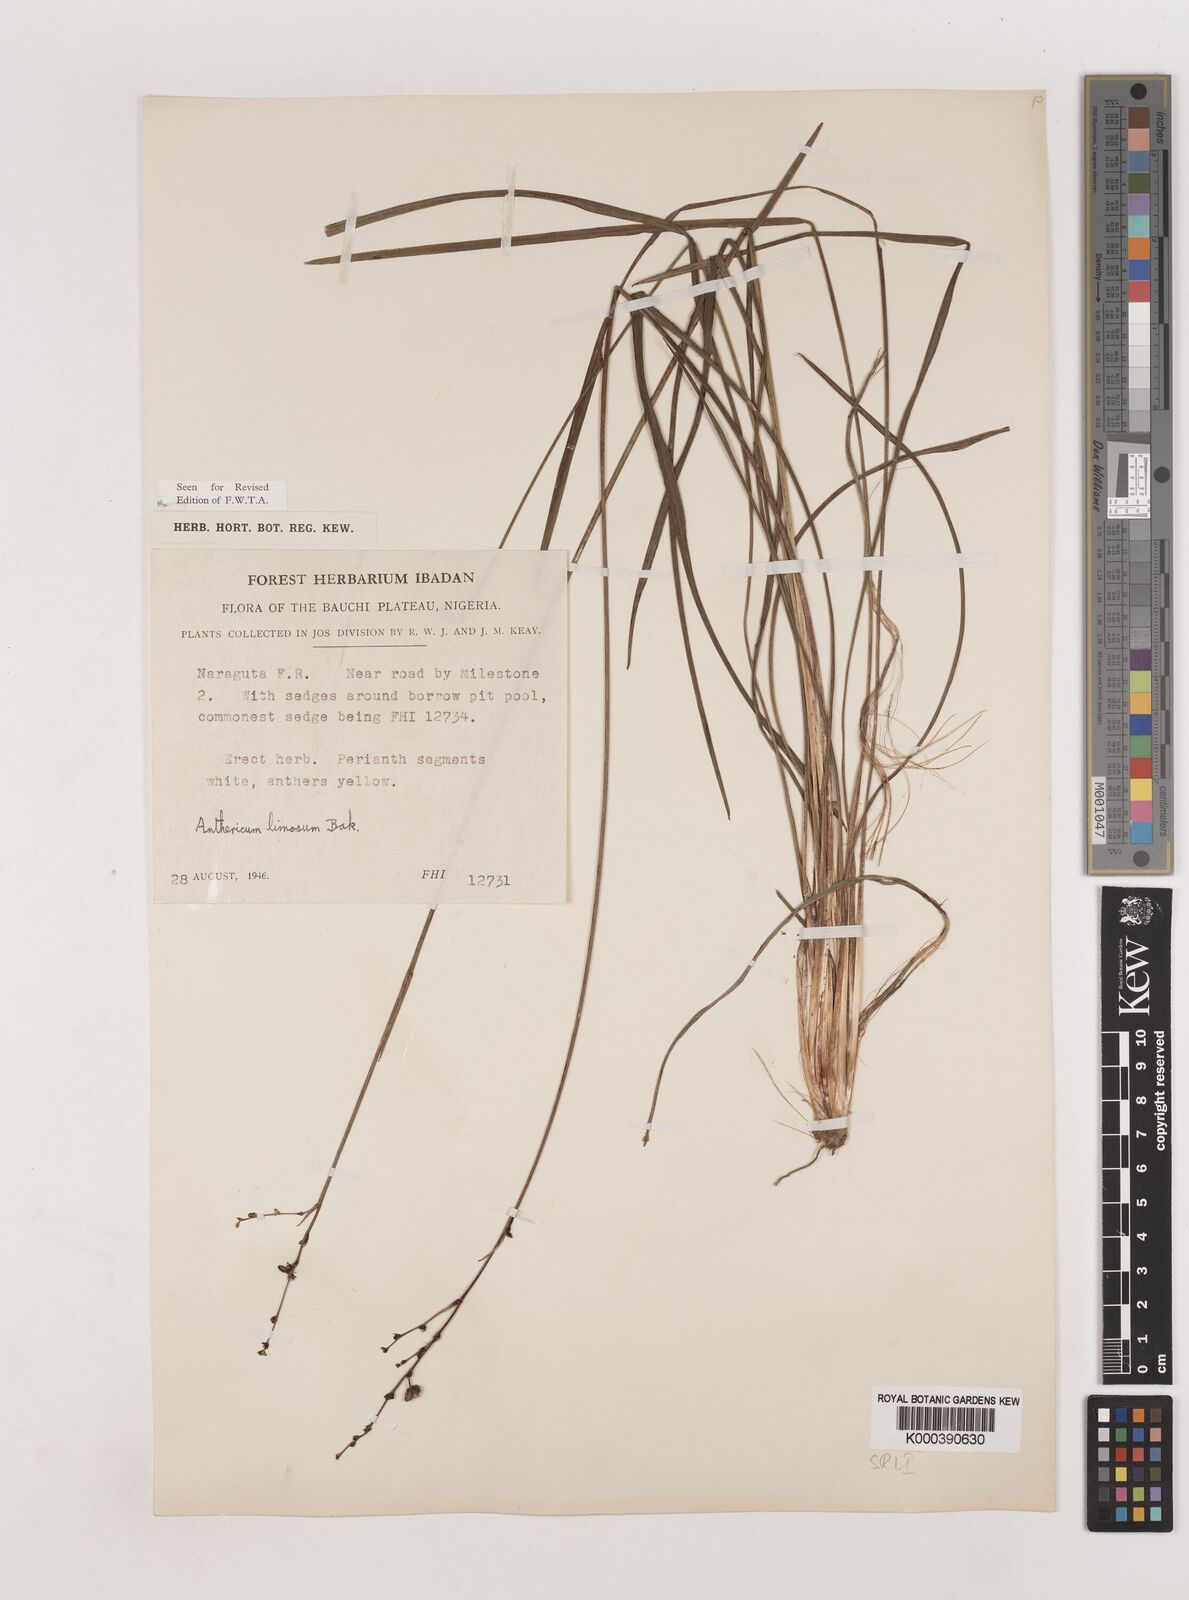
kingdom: Plantae
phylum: Tracheophyta
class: Liliopsida
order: Asparagales
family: Asparagaceae
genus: Chlorophytum
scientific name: Chlorophytum limosum
